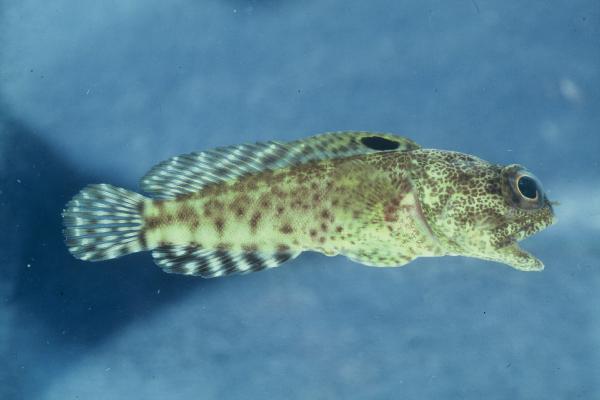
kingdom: Animalia
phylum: Chordata
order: Perciformes
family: Opistognathidae
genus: Opistognathus
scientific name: Opistognathus darwiniensis
